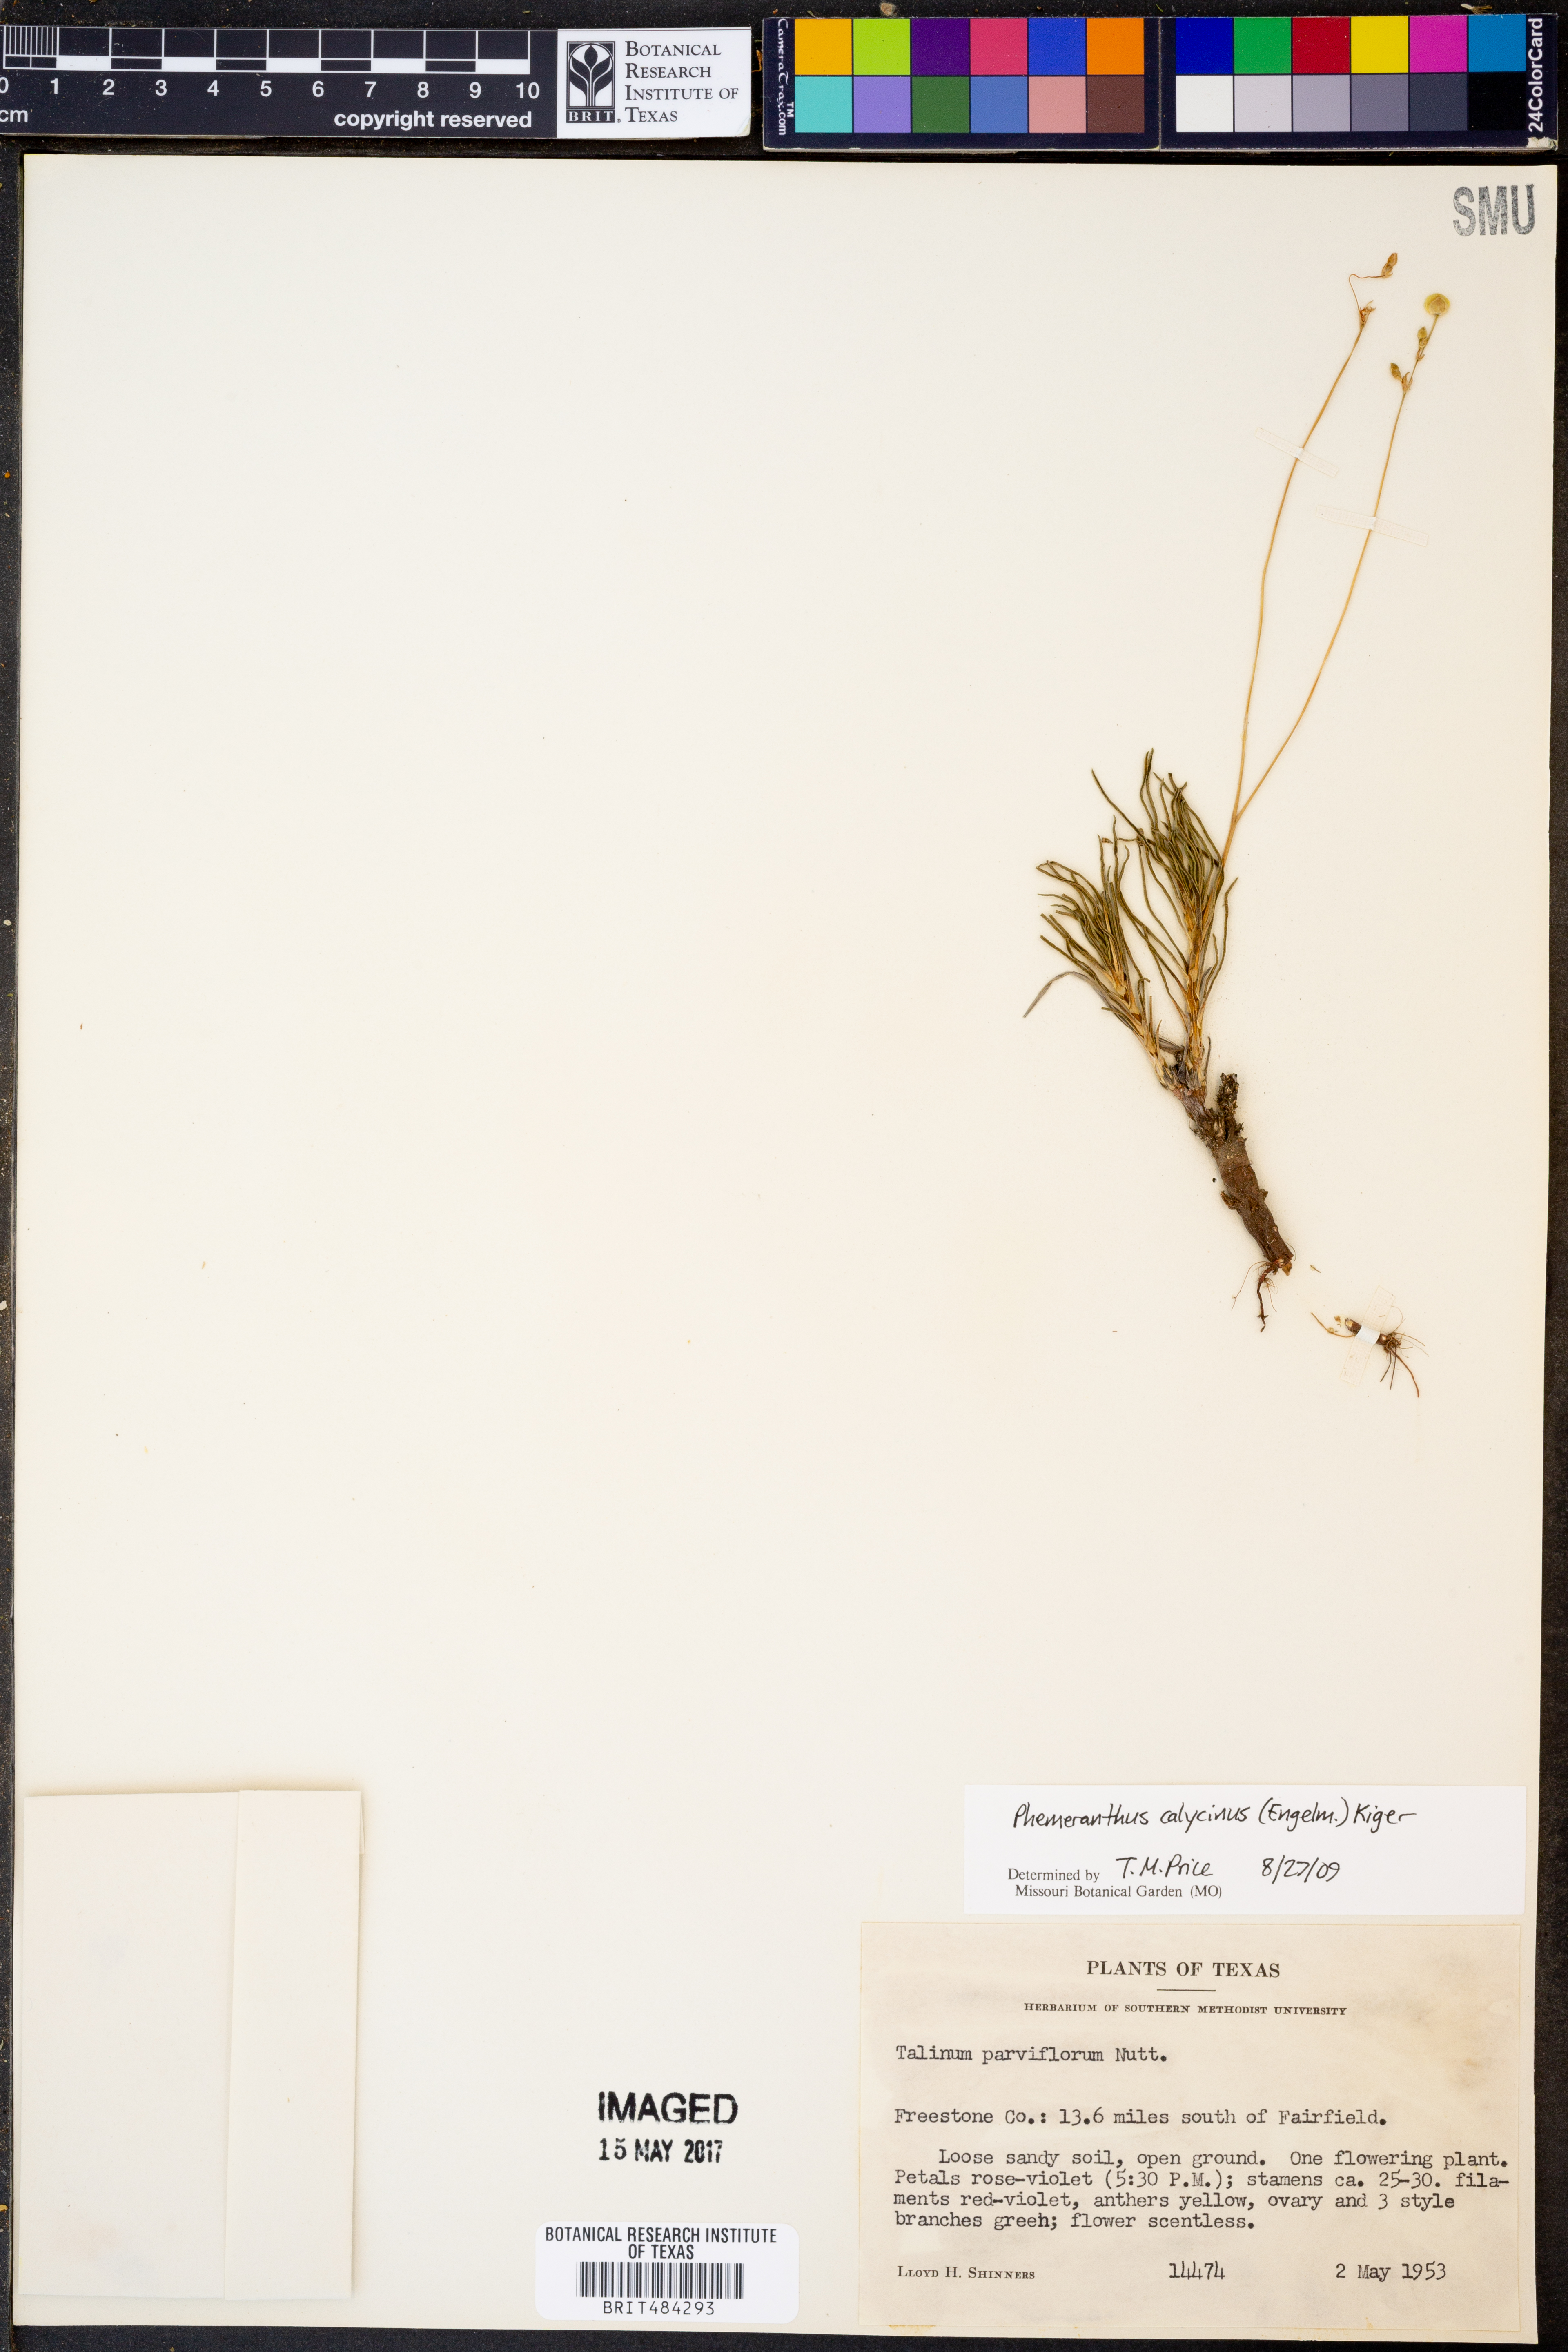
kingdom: Plantae
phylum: Tracheophyta
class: Magnoliopsida
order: Caryophyllales
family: Montiaceae
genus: Phemeranthus
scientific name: Phemeranthus calycinus
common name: Largeflower fameflower
